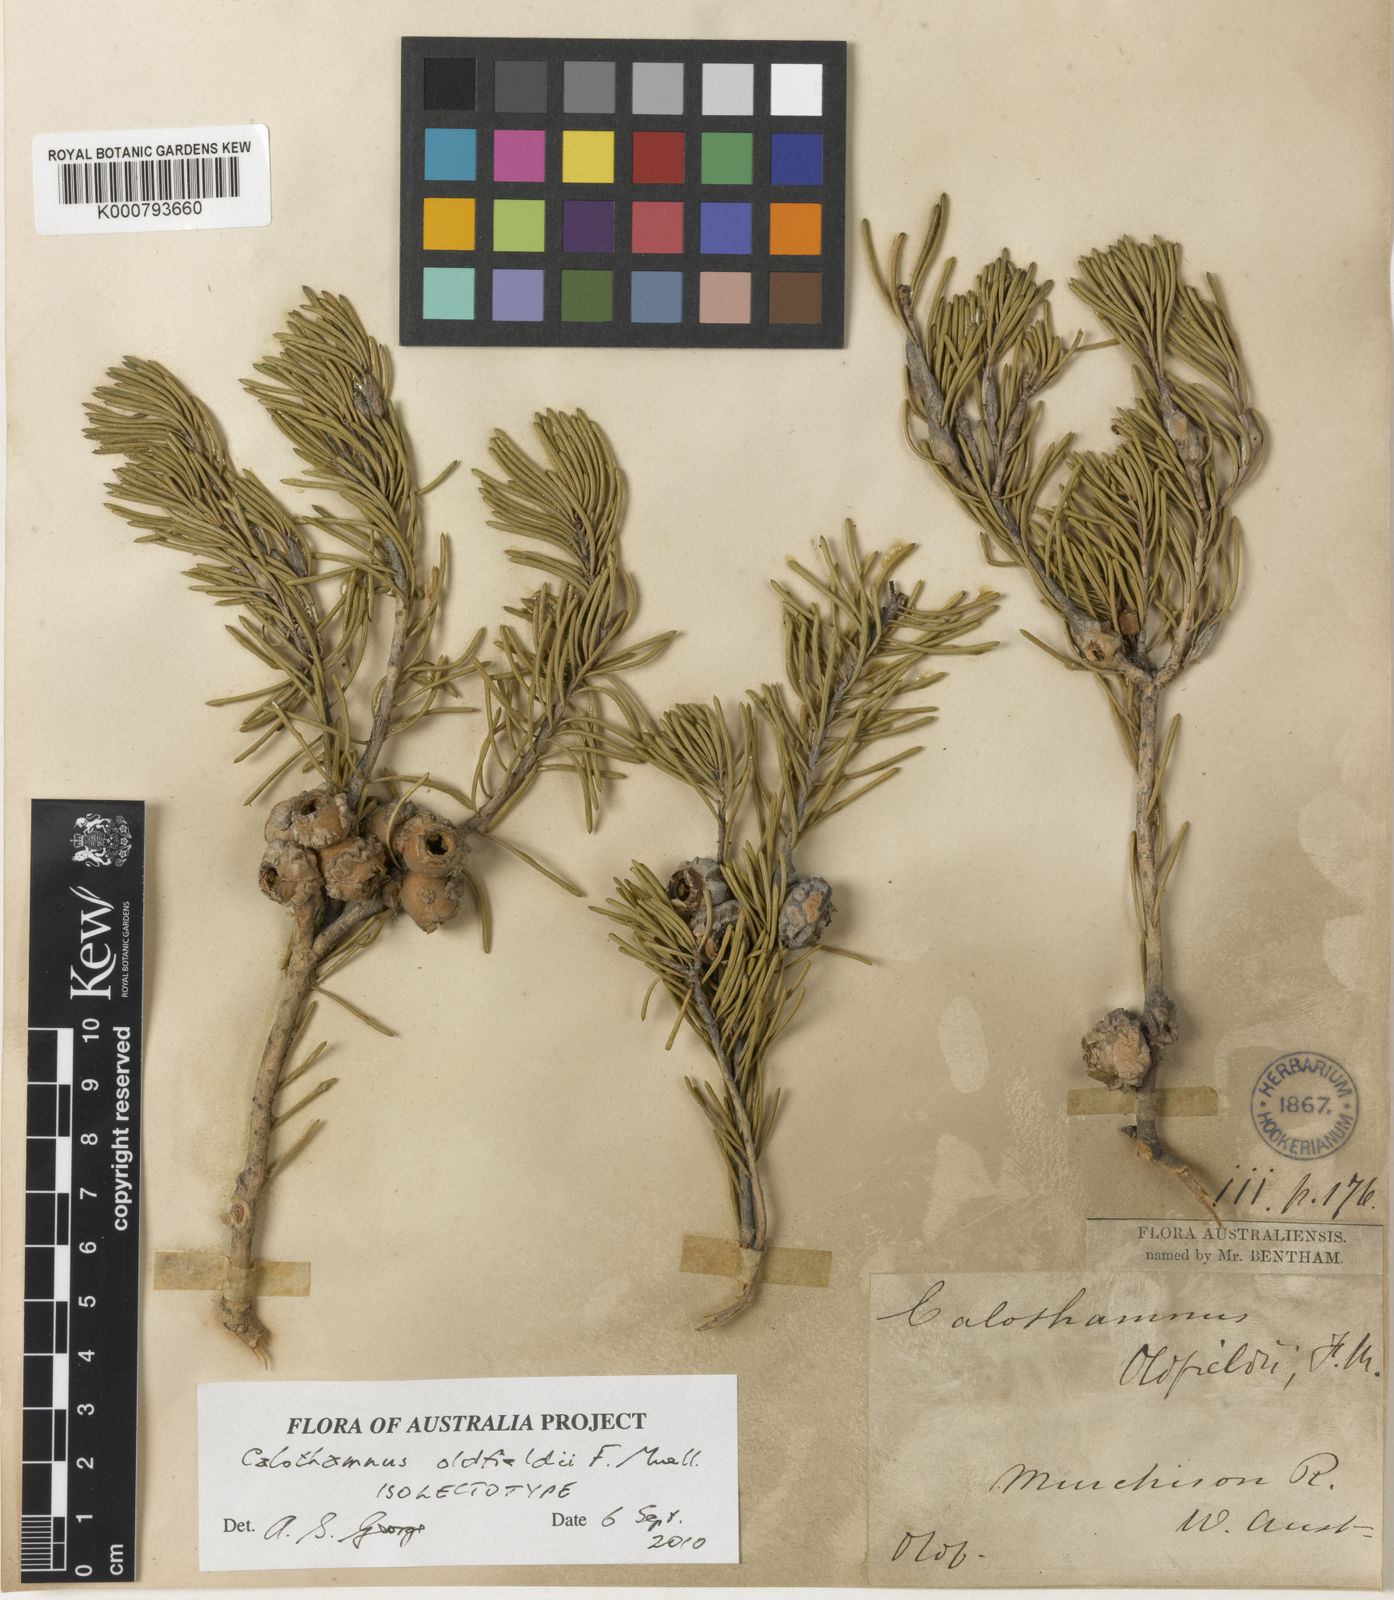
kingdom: Plantae
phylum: Tracheophyta
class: Magnoliopsida
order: Myrtales
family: Myrtaceae
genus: Melaleuca
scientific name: Melaleuca augusti-oldfieldii
